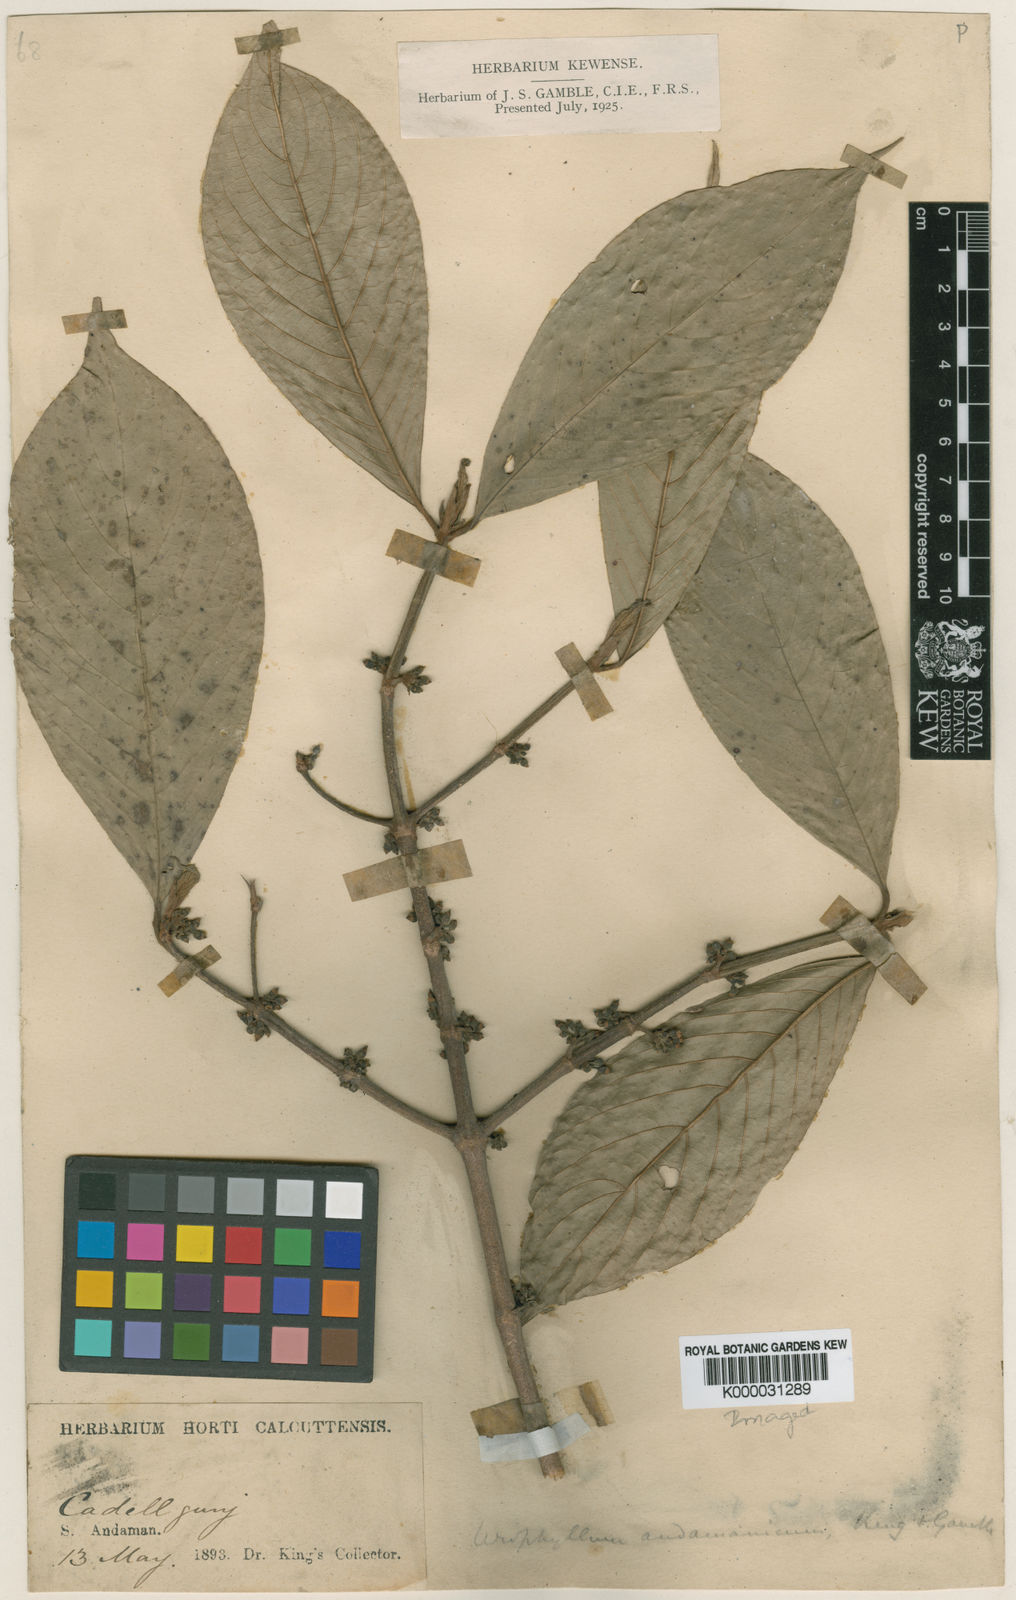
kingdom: Plantae
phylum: Tracheophyta
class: Magnoliopsida
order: Gentianales
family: Rubiaceae
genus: Urophyllum
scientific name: Urophyllum andamanicum
